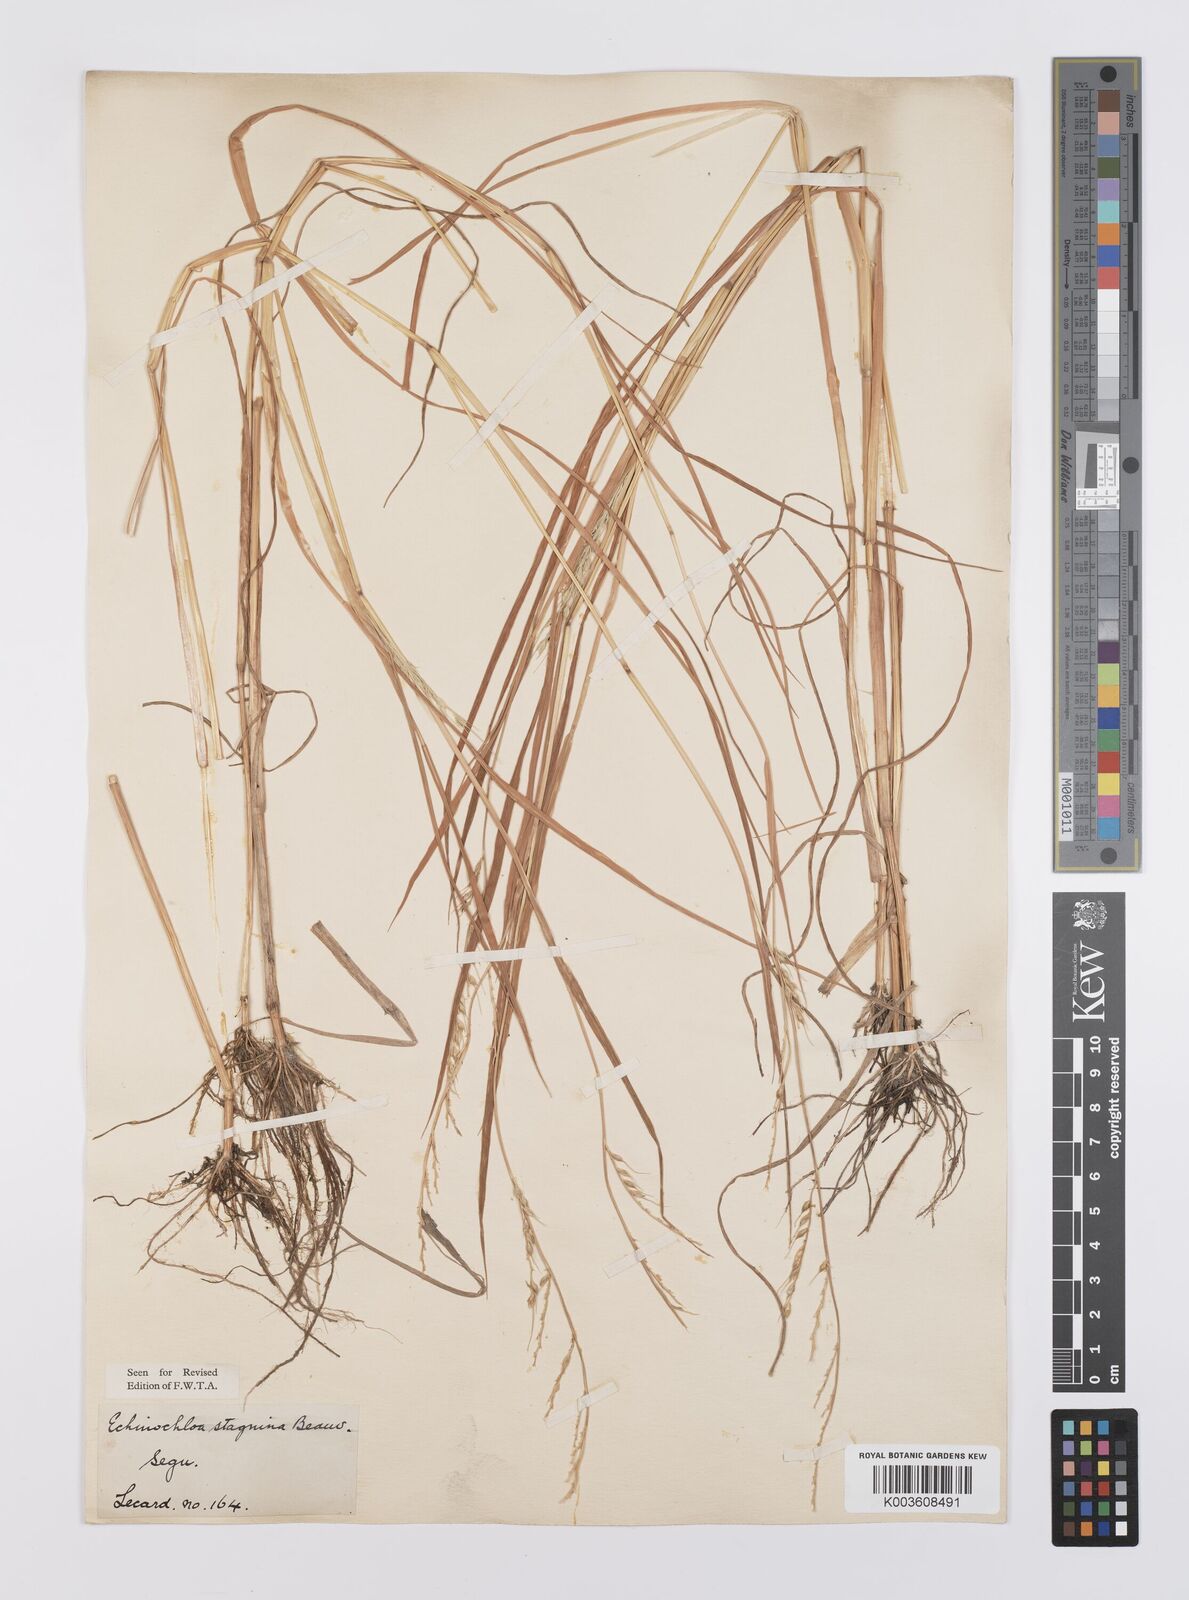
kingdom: Plantae
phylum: Tracheophyta
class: Liliopsida
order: Poales
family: Poaceae
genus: Echinochloa
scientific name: Echinochloa stagnina
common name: Burgu grass
